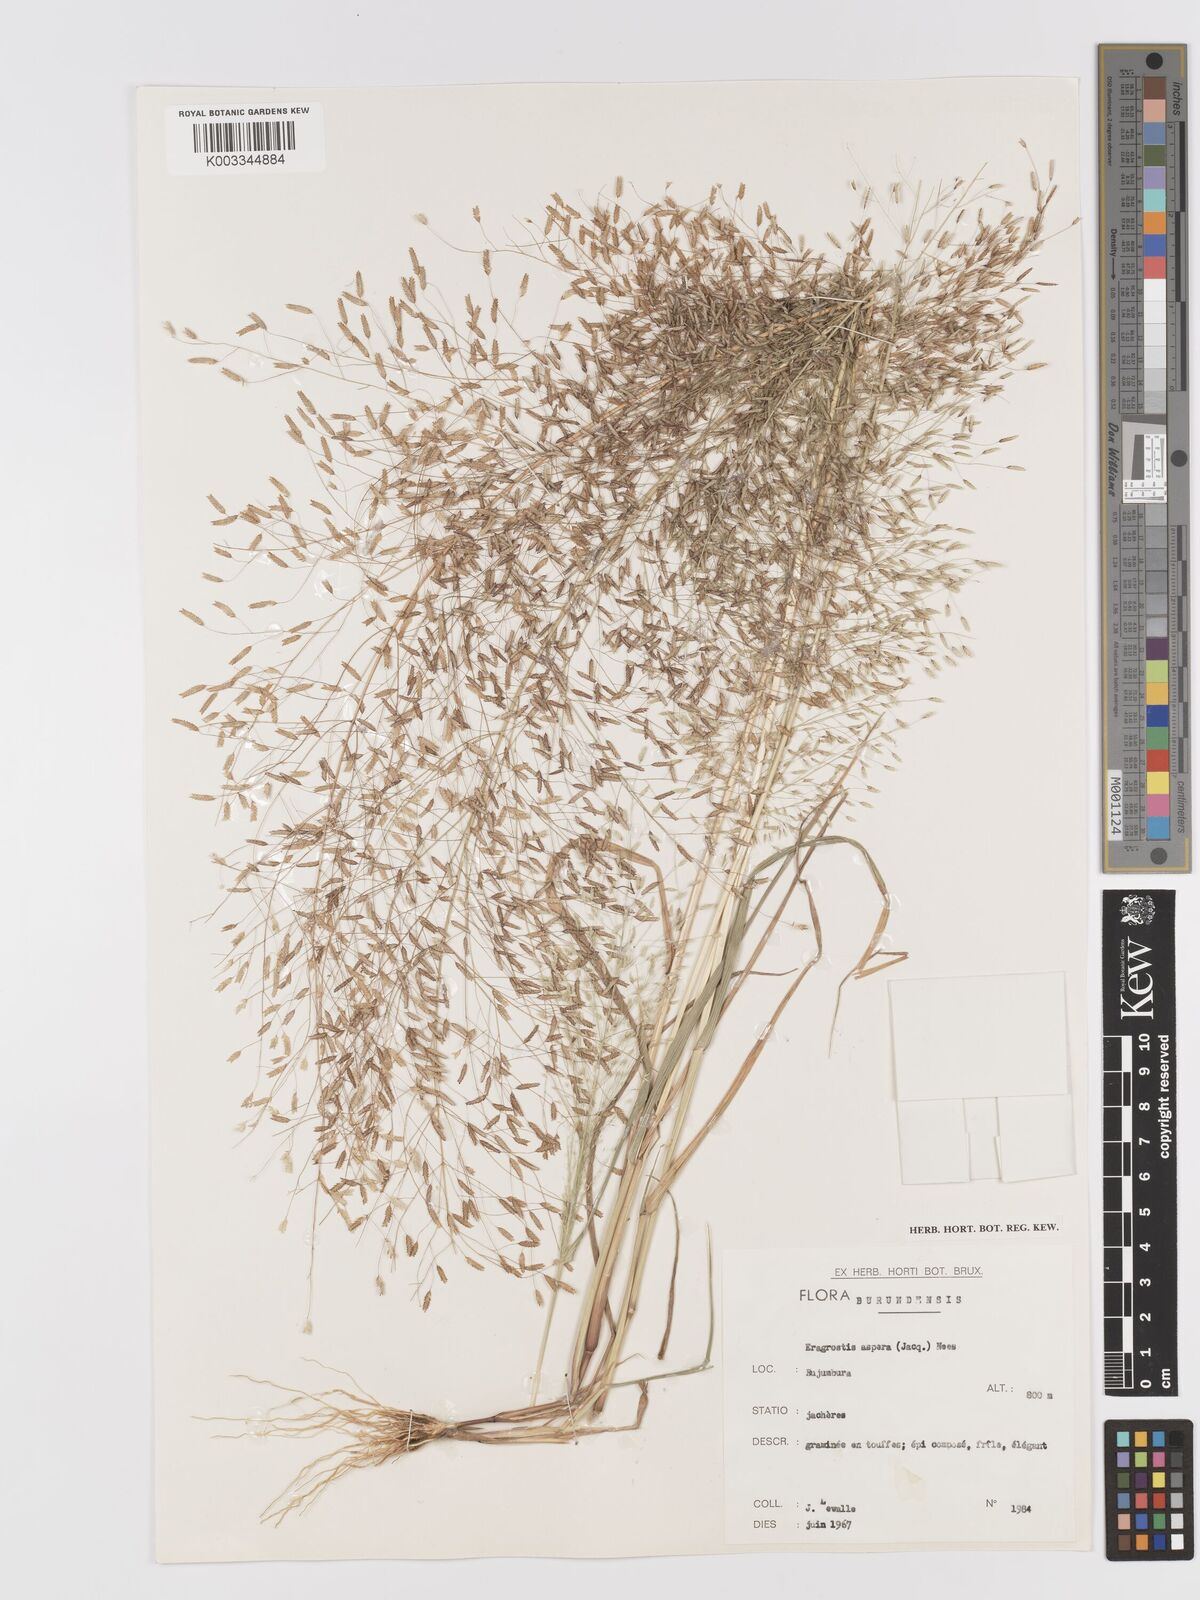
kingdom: Plantae
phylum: Tracheophyta
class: Liliopsida
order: Poales
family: Poaceae
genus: Eragrostis
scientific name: Eragrostis aspera
